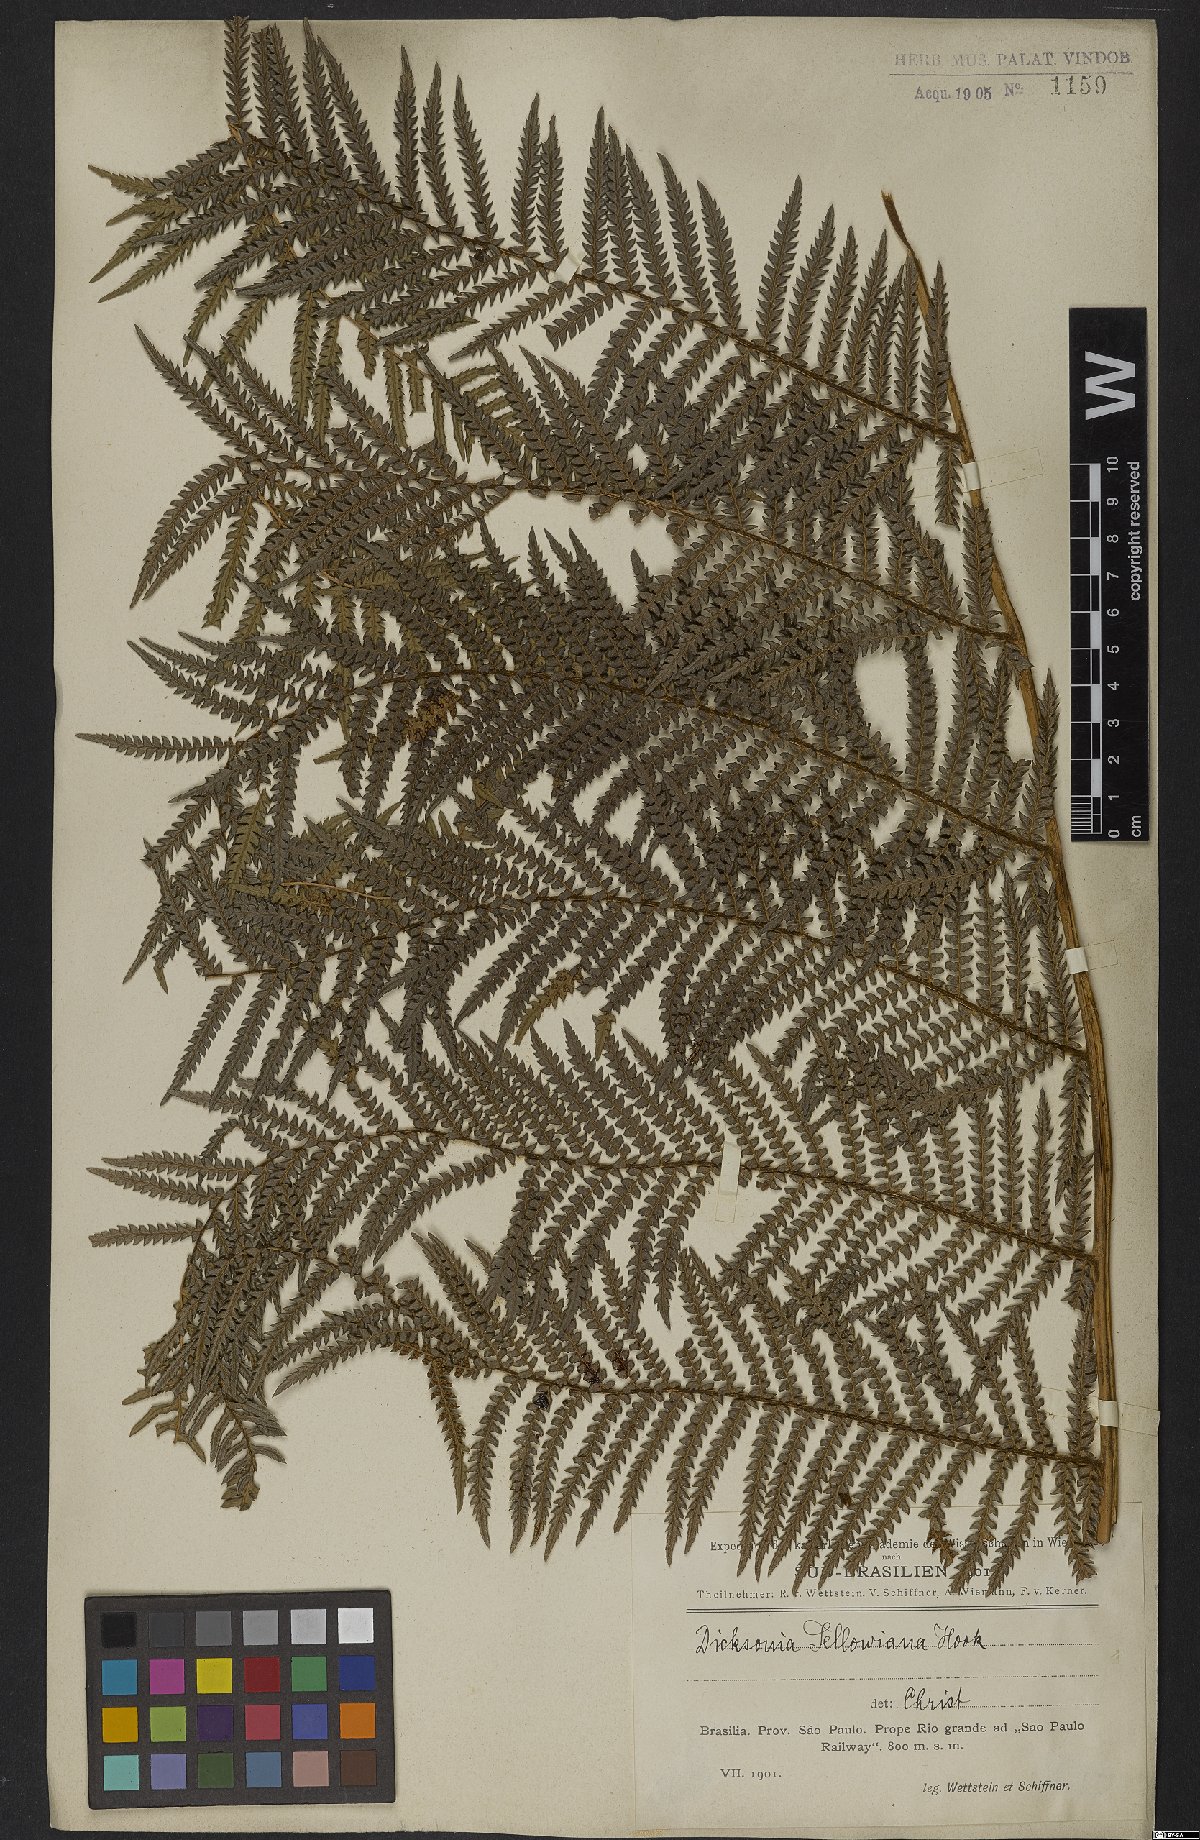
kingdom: Plantae
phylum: Tracheophyta
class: Polypodiopsida
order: Cyatheales
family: Dicksoniaceae
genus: Dicksonia
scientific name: Dicksonia sellowiana
